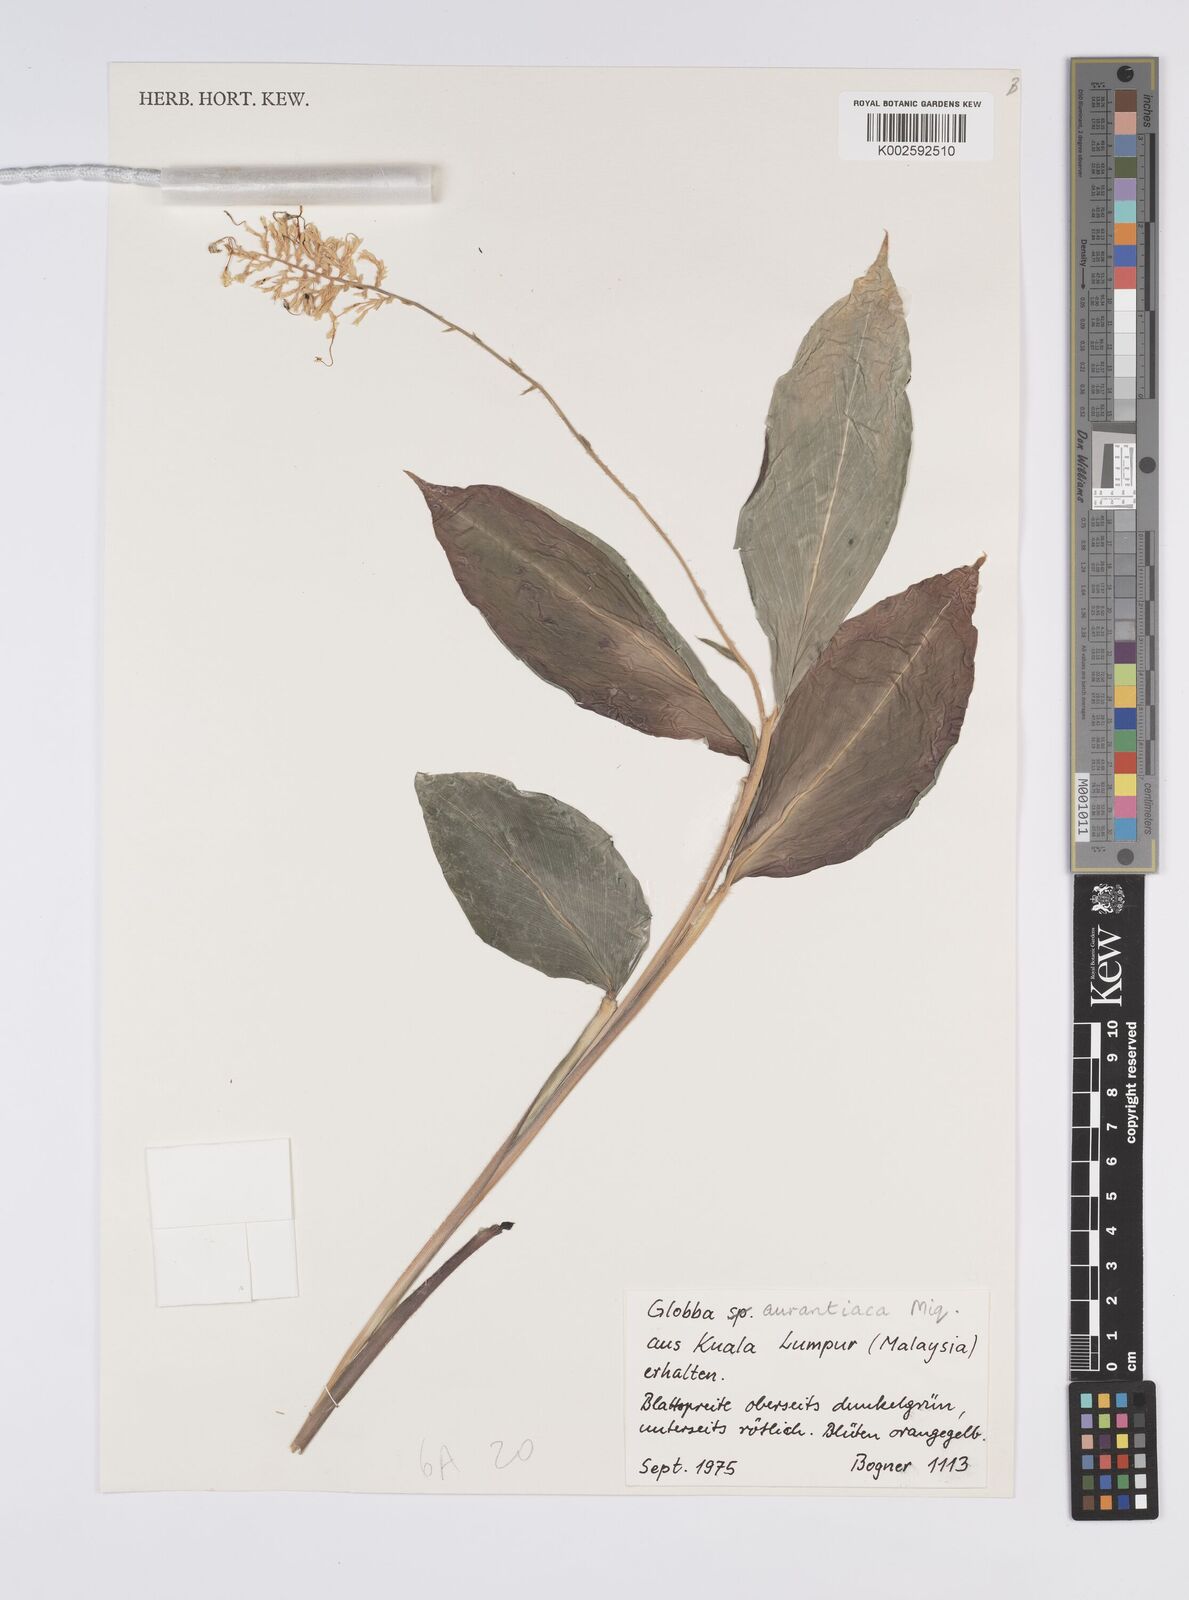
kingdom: Plantae
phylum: Tracheophyta
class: Liliopsida
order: Zingiberales
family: Zingiberaceae
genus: Globba
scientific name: Globba aurantiaca
